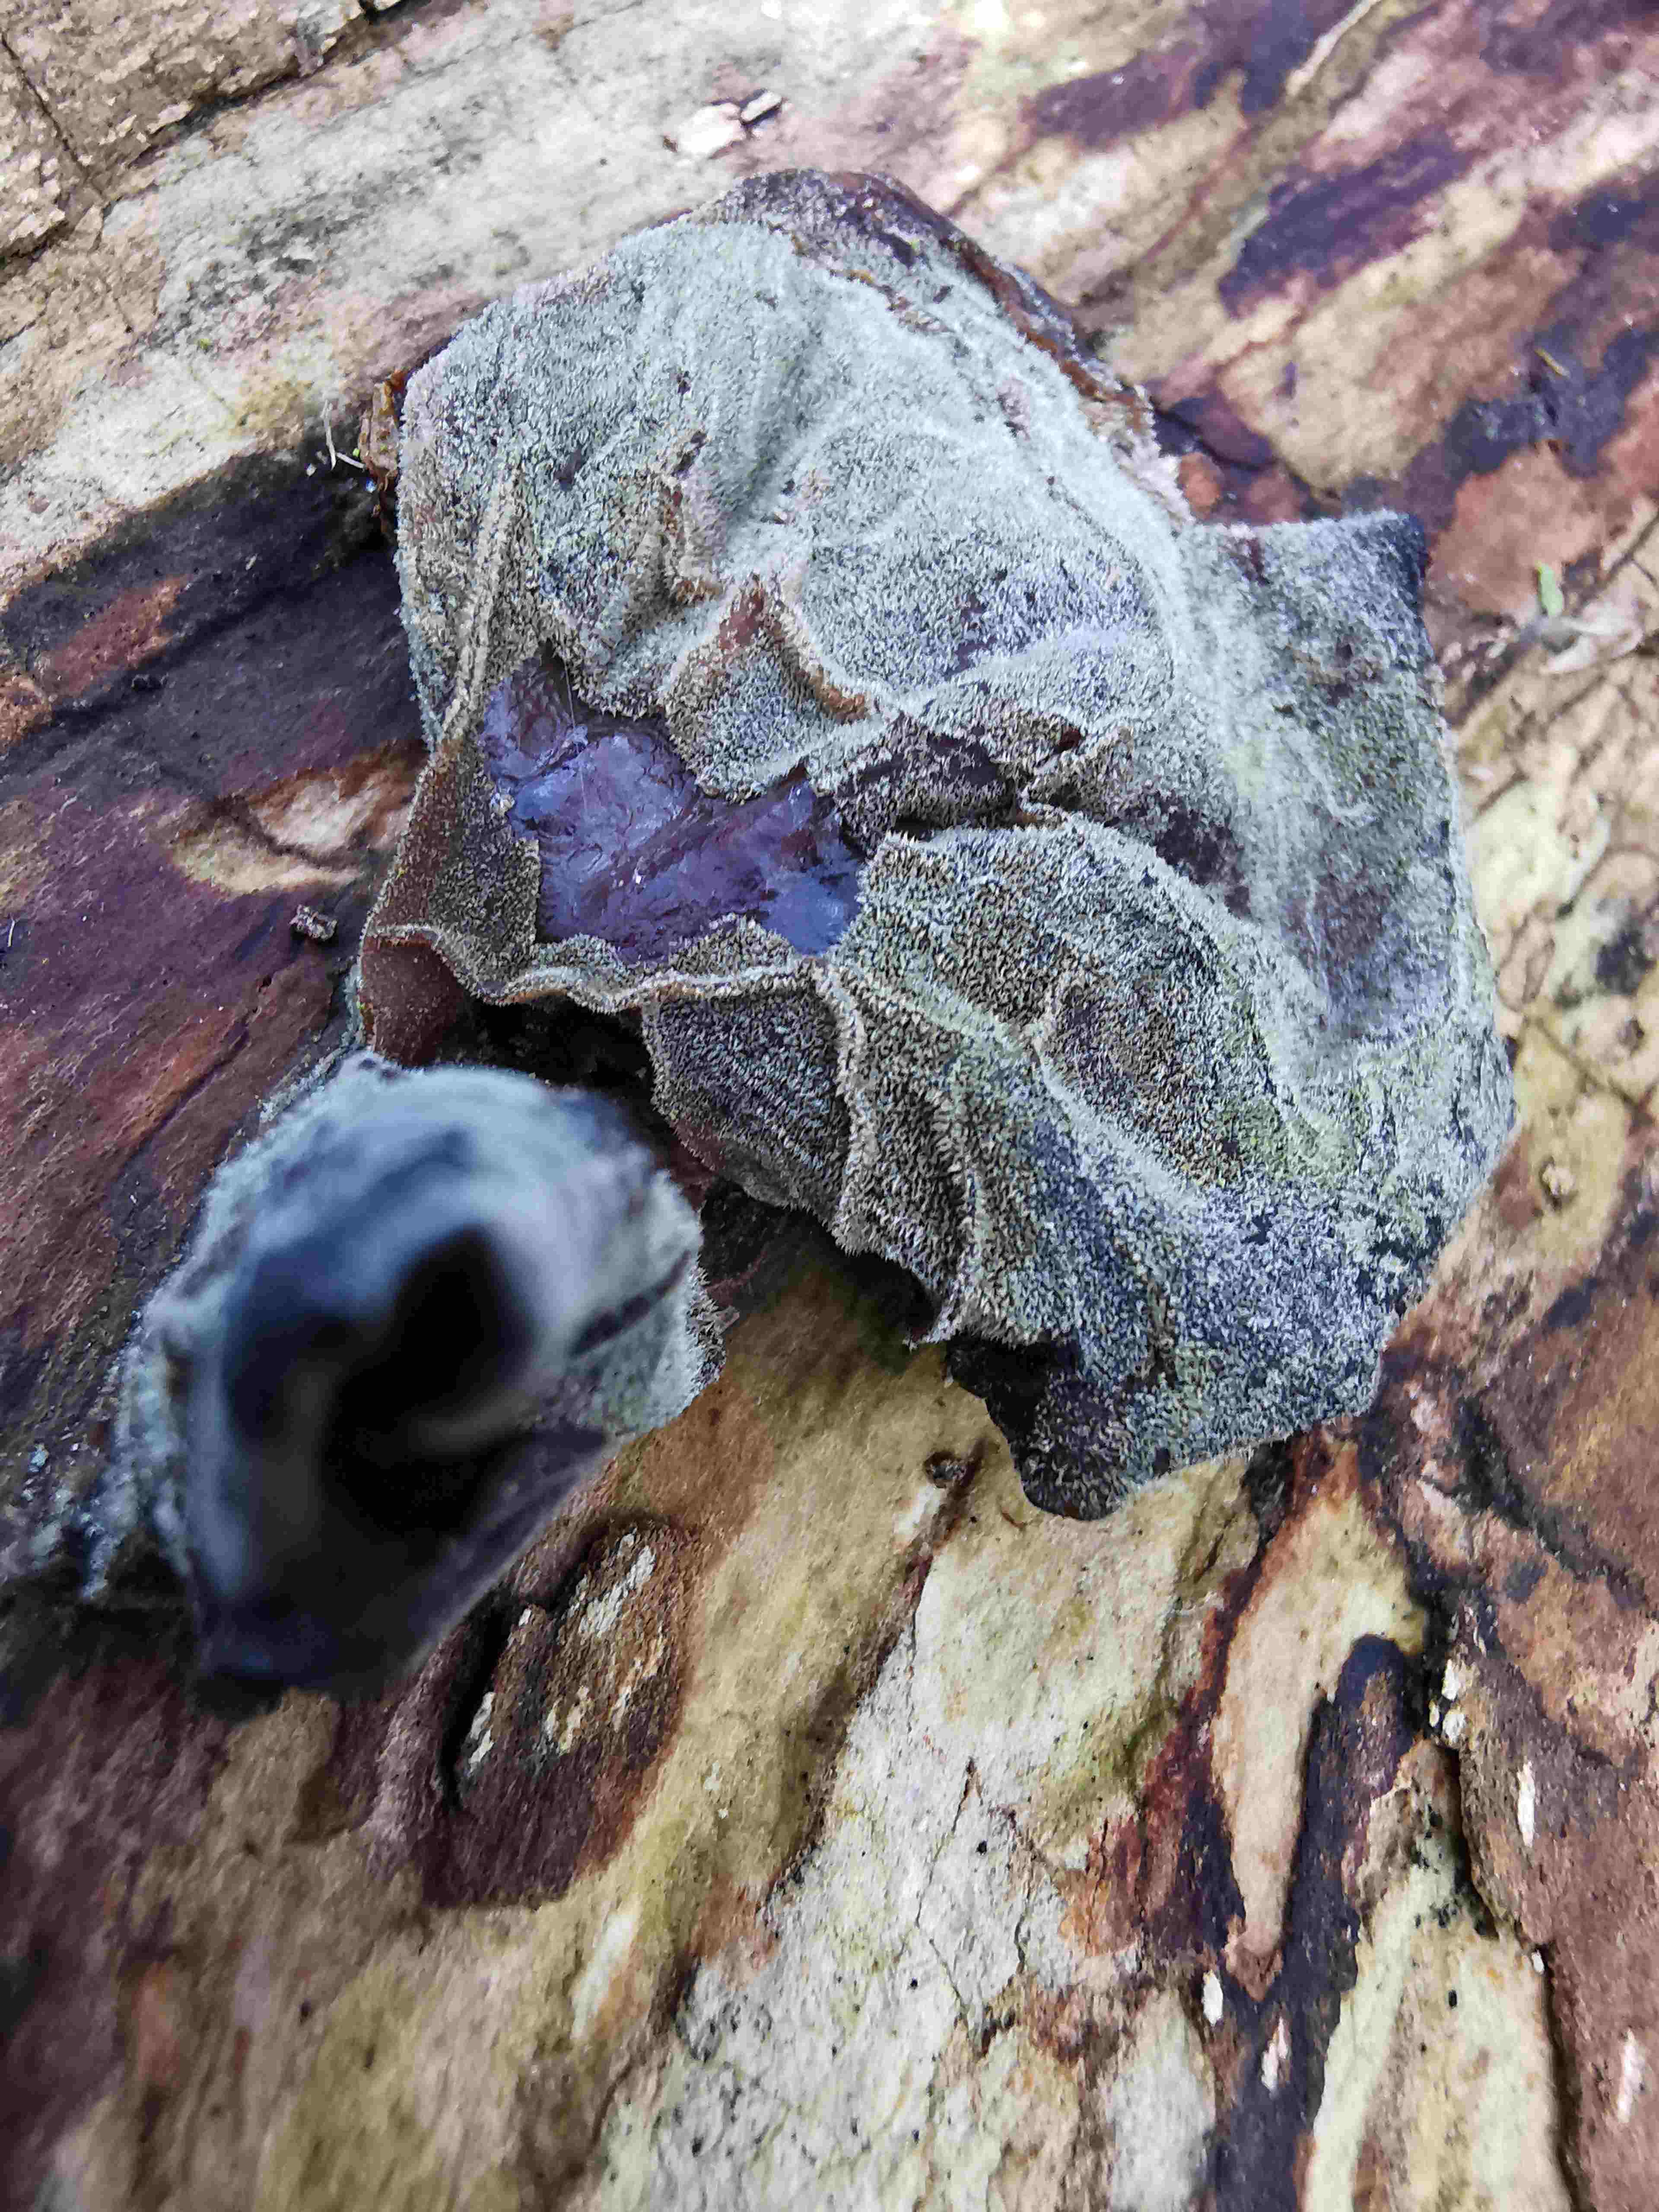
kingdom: Fungi
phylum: Basidiomycota
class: Agaricomycetes
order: Auriculariales
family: Auriculariaceae
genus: Auricularia
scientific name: Auricularia auricula-judae
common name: almindelig judasøre
